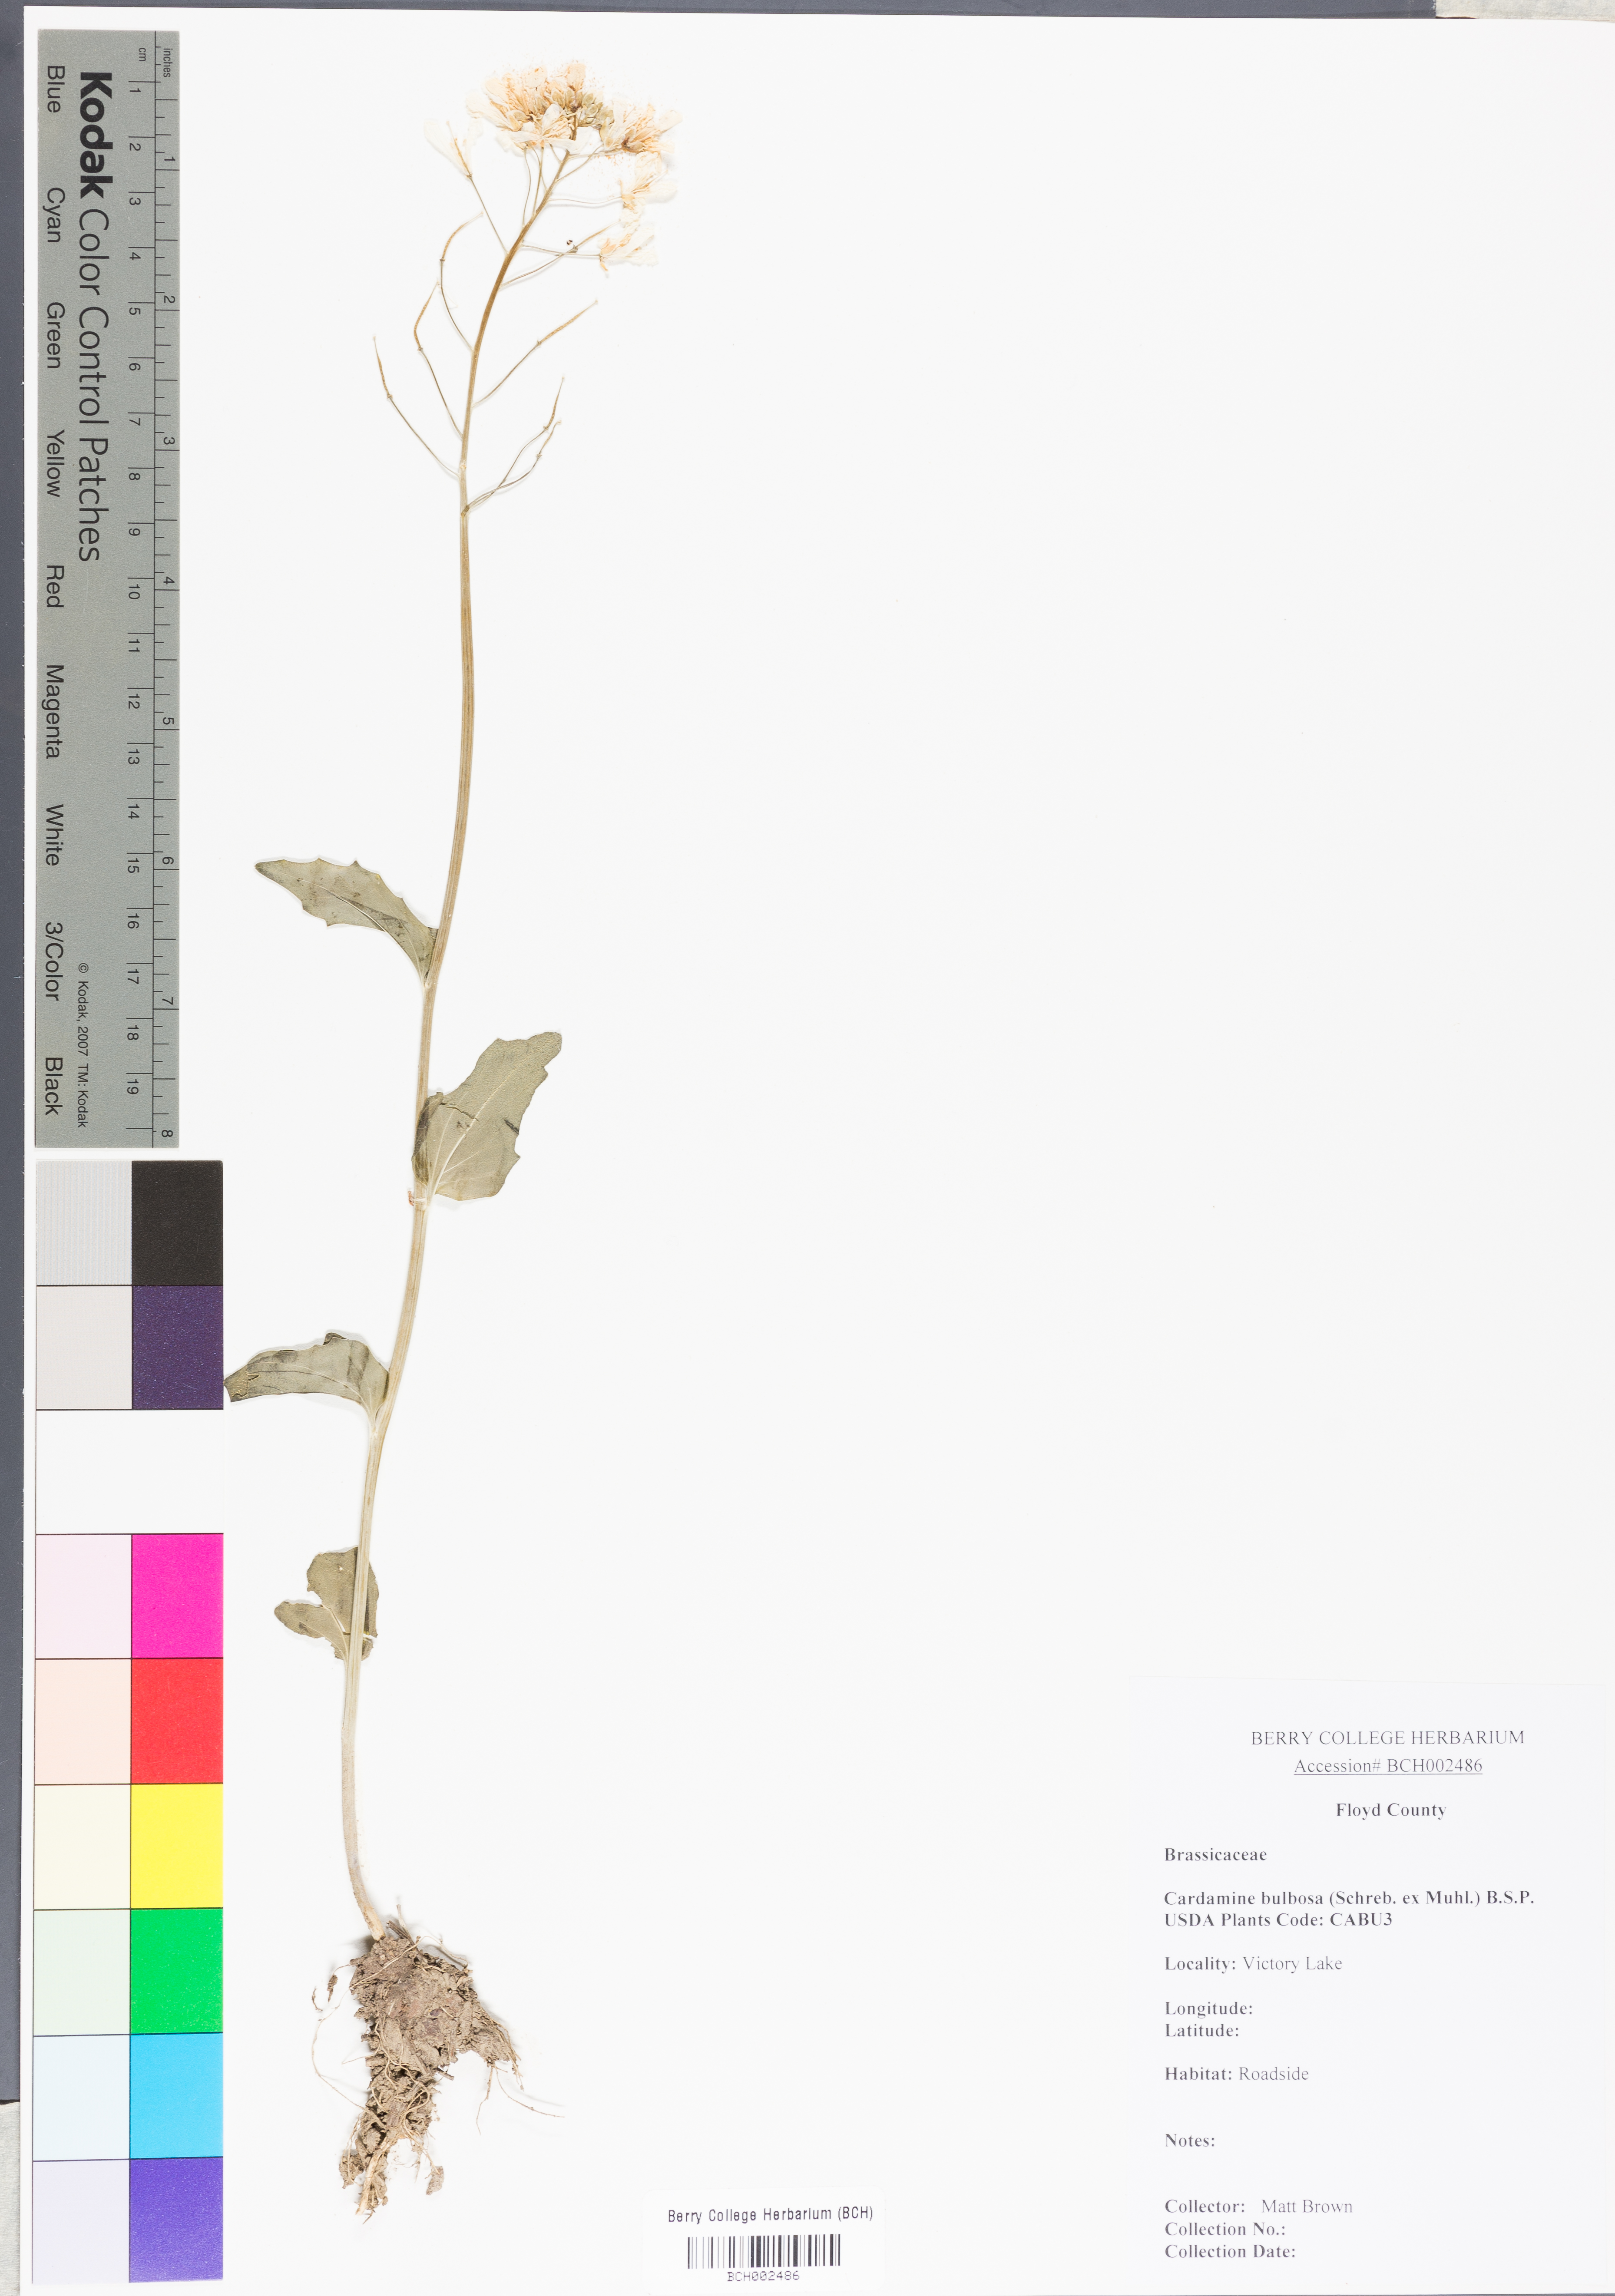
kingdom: Plantae
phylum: Tracheophyta
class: Magnoliopsida
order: Brassicales
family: Brassicaceae
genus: Cardamine
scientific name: Cardamine bulbosa
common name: Spring cress
